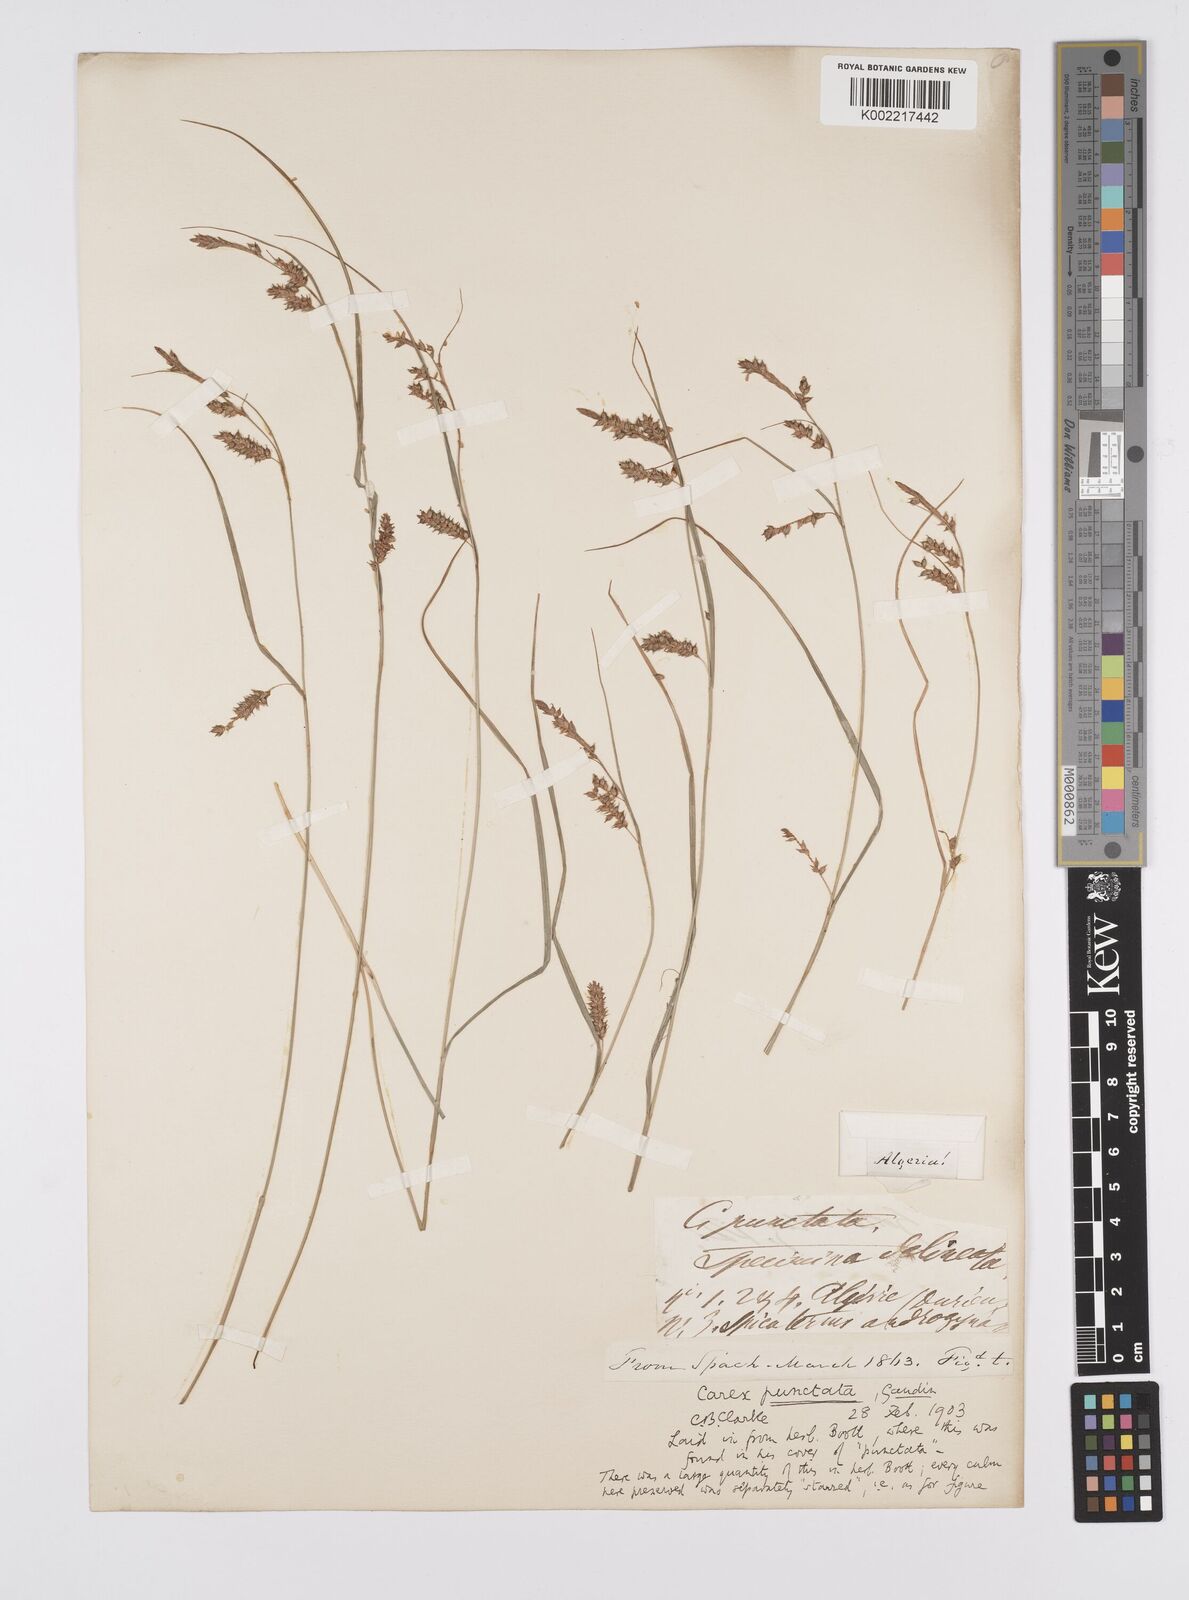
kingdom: Plantae
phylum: Tracheophyta
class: Liliopsida
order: Poales
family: Cyperaceae
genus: Carex
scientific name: Carex punctata
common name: Dotted sedge
